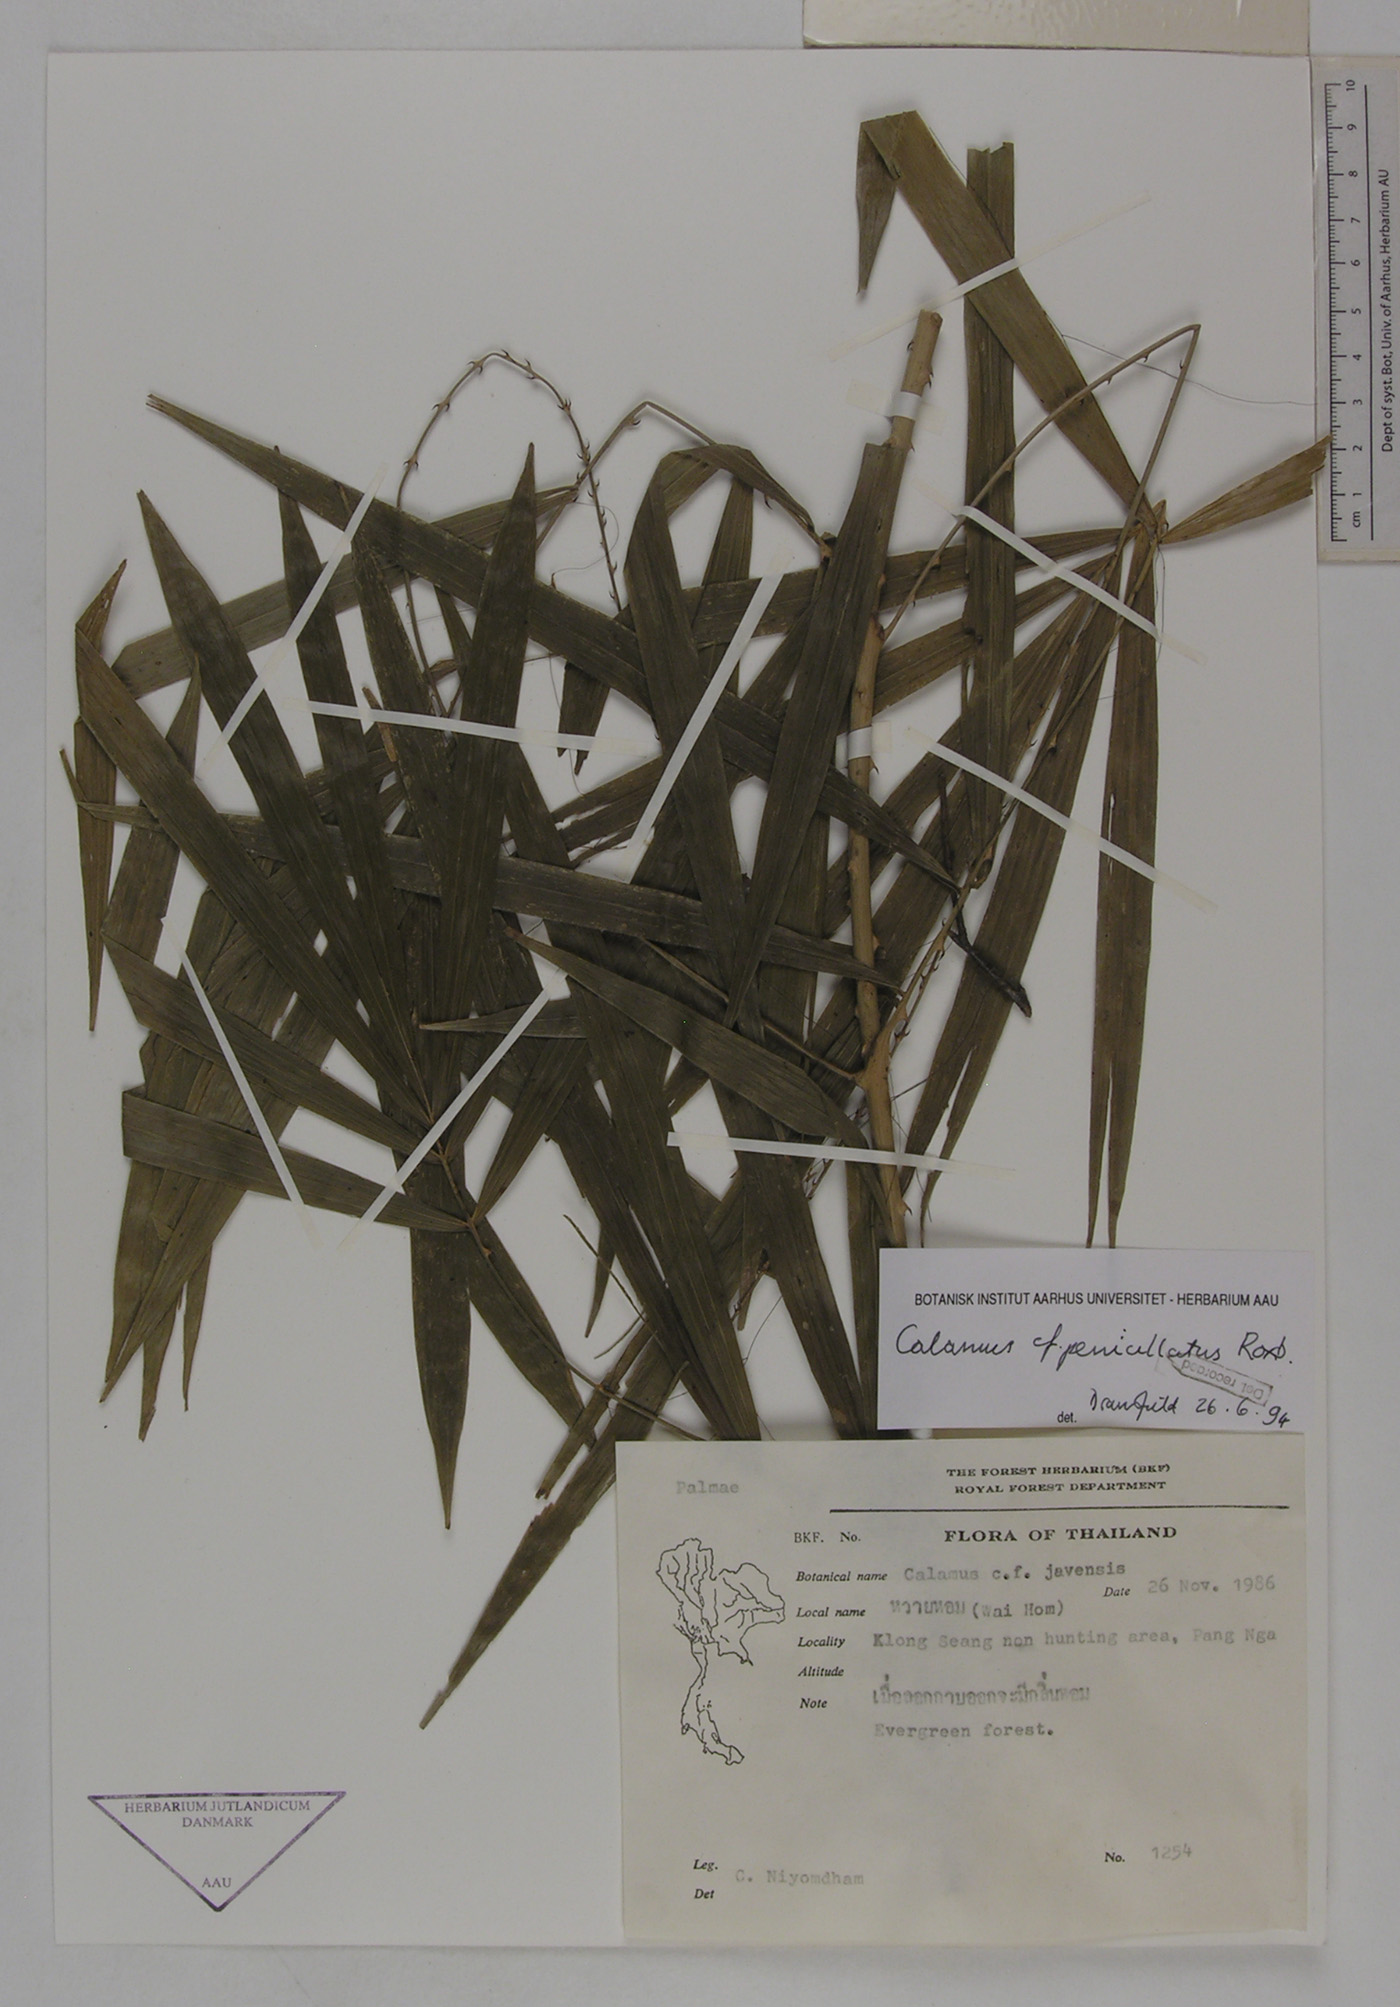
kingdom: Plantae
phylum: Tracheophyta
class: Liliopsida
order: Arecales
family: Arecaceae
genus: Calamus
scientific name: Calamus penicillatus
